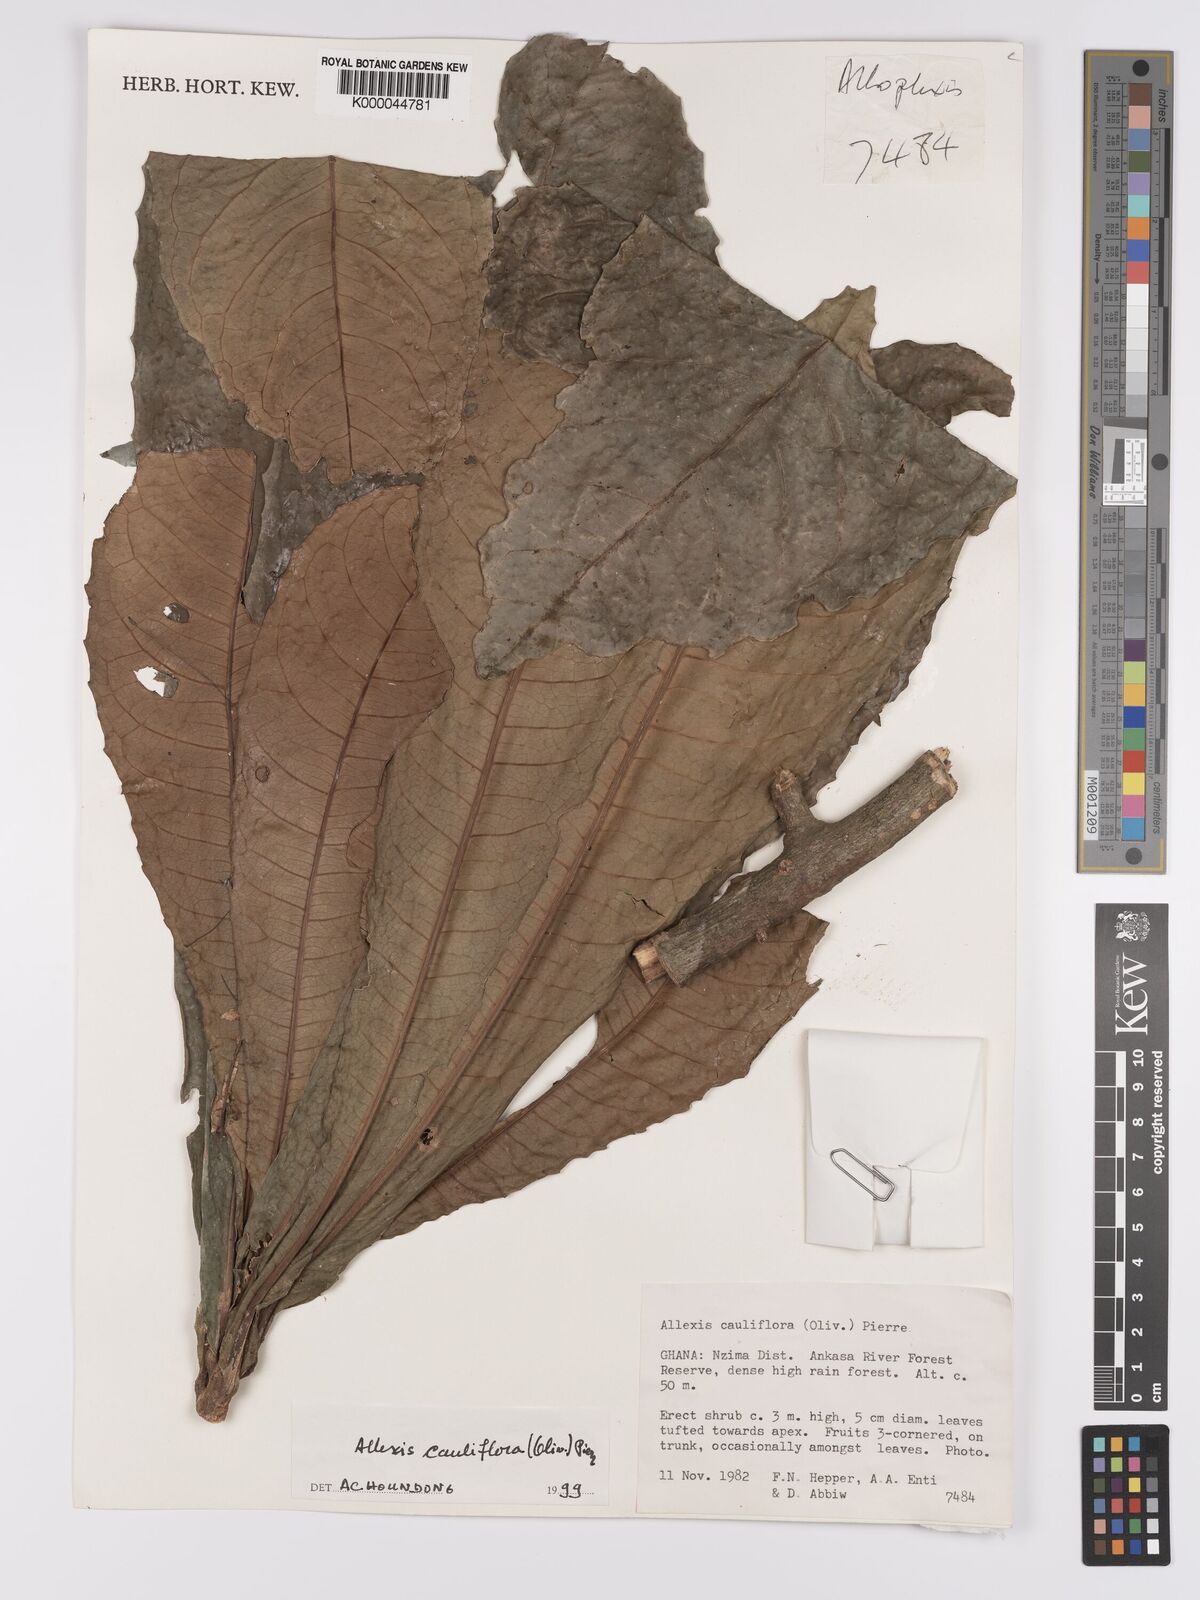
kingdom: Plantae
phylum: Tracheophyta
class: Magnoliopsida
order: Malpighiales
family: Violaceae
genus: Allexis
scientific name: Allexis cauliflora
